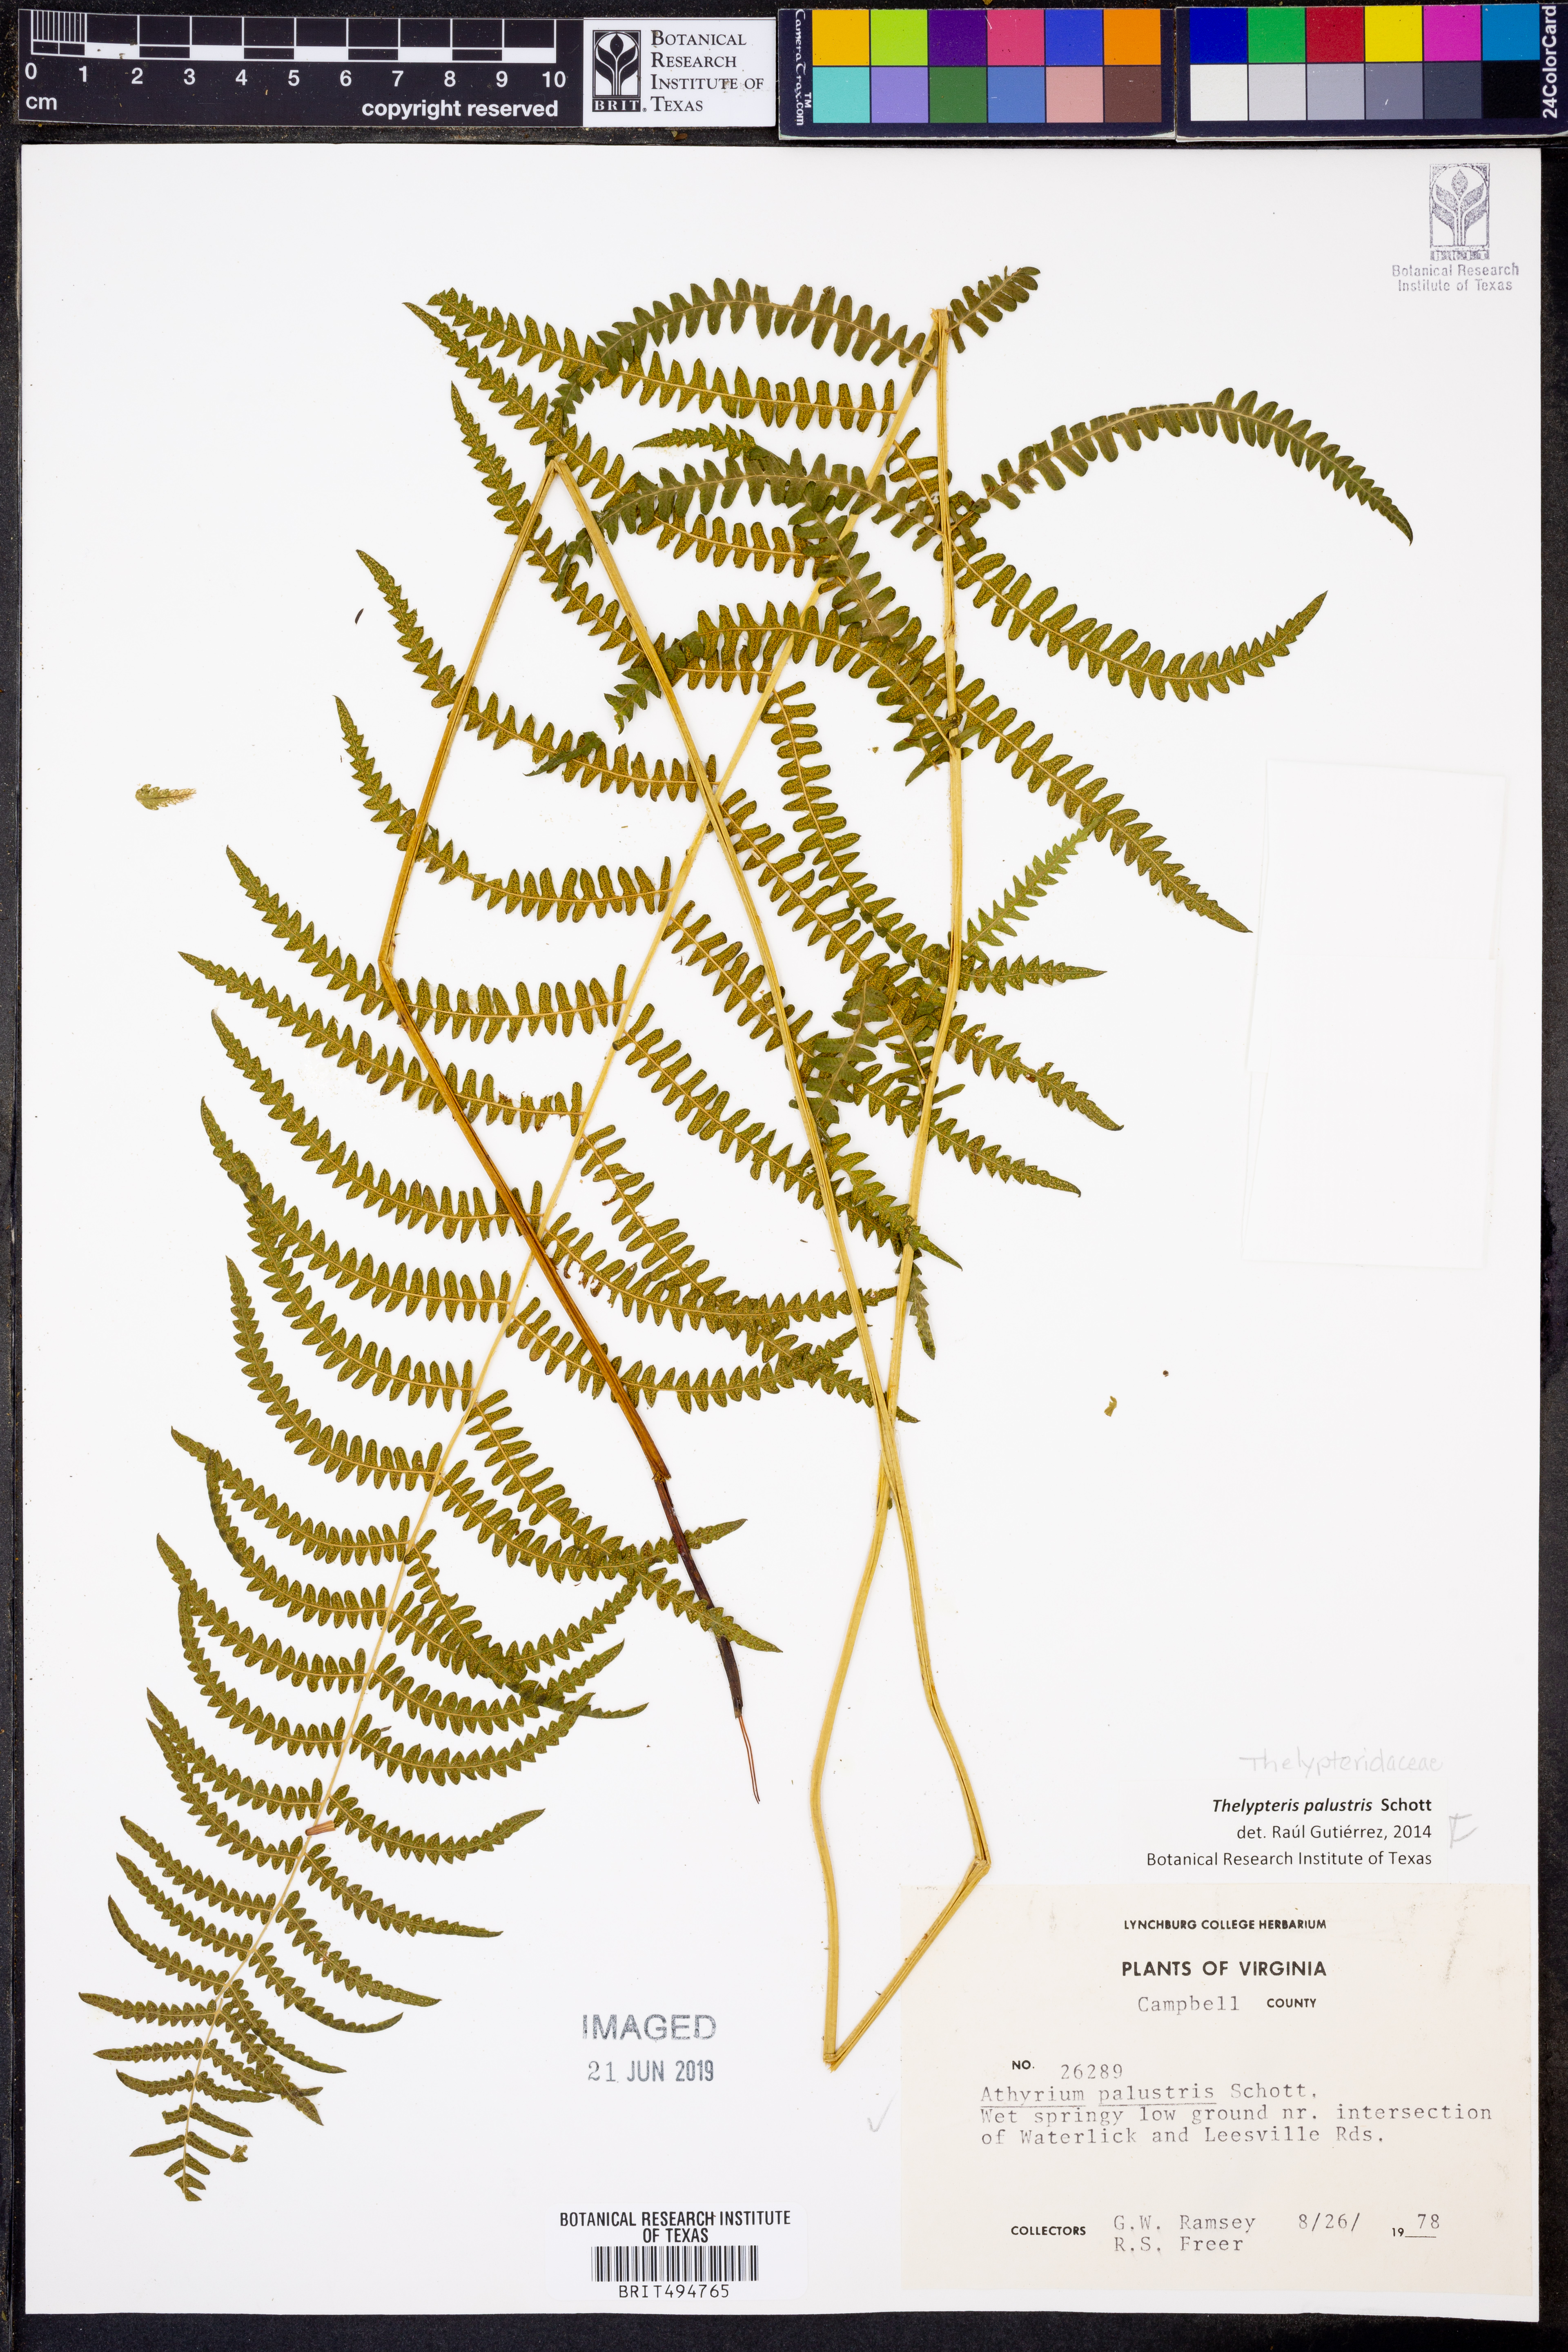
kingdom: Plantae
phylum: Tracheophyta
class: Polypodiopsida
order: Polypodiales
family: Thelypteridaceae
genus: Thelypteris
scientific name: Thelypteris palustris
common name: Marsh fern
